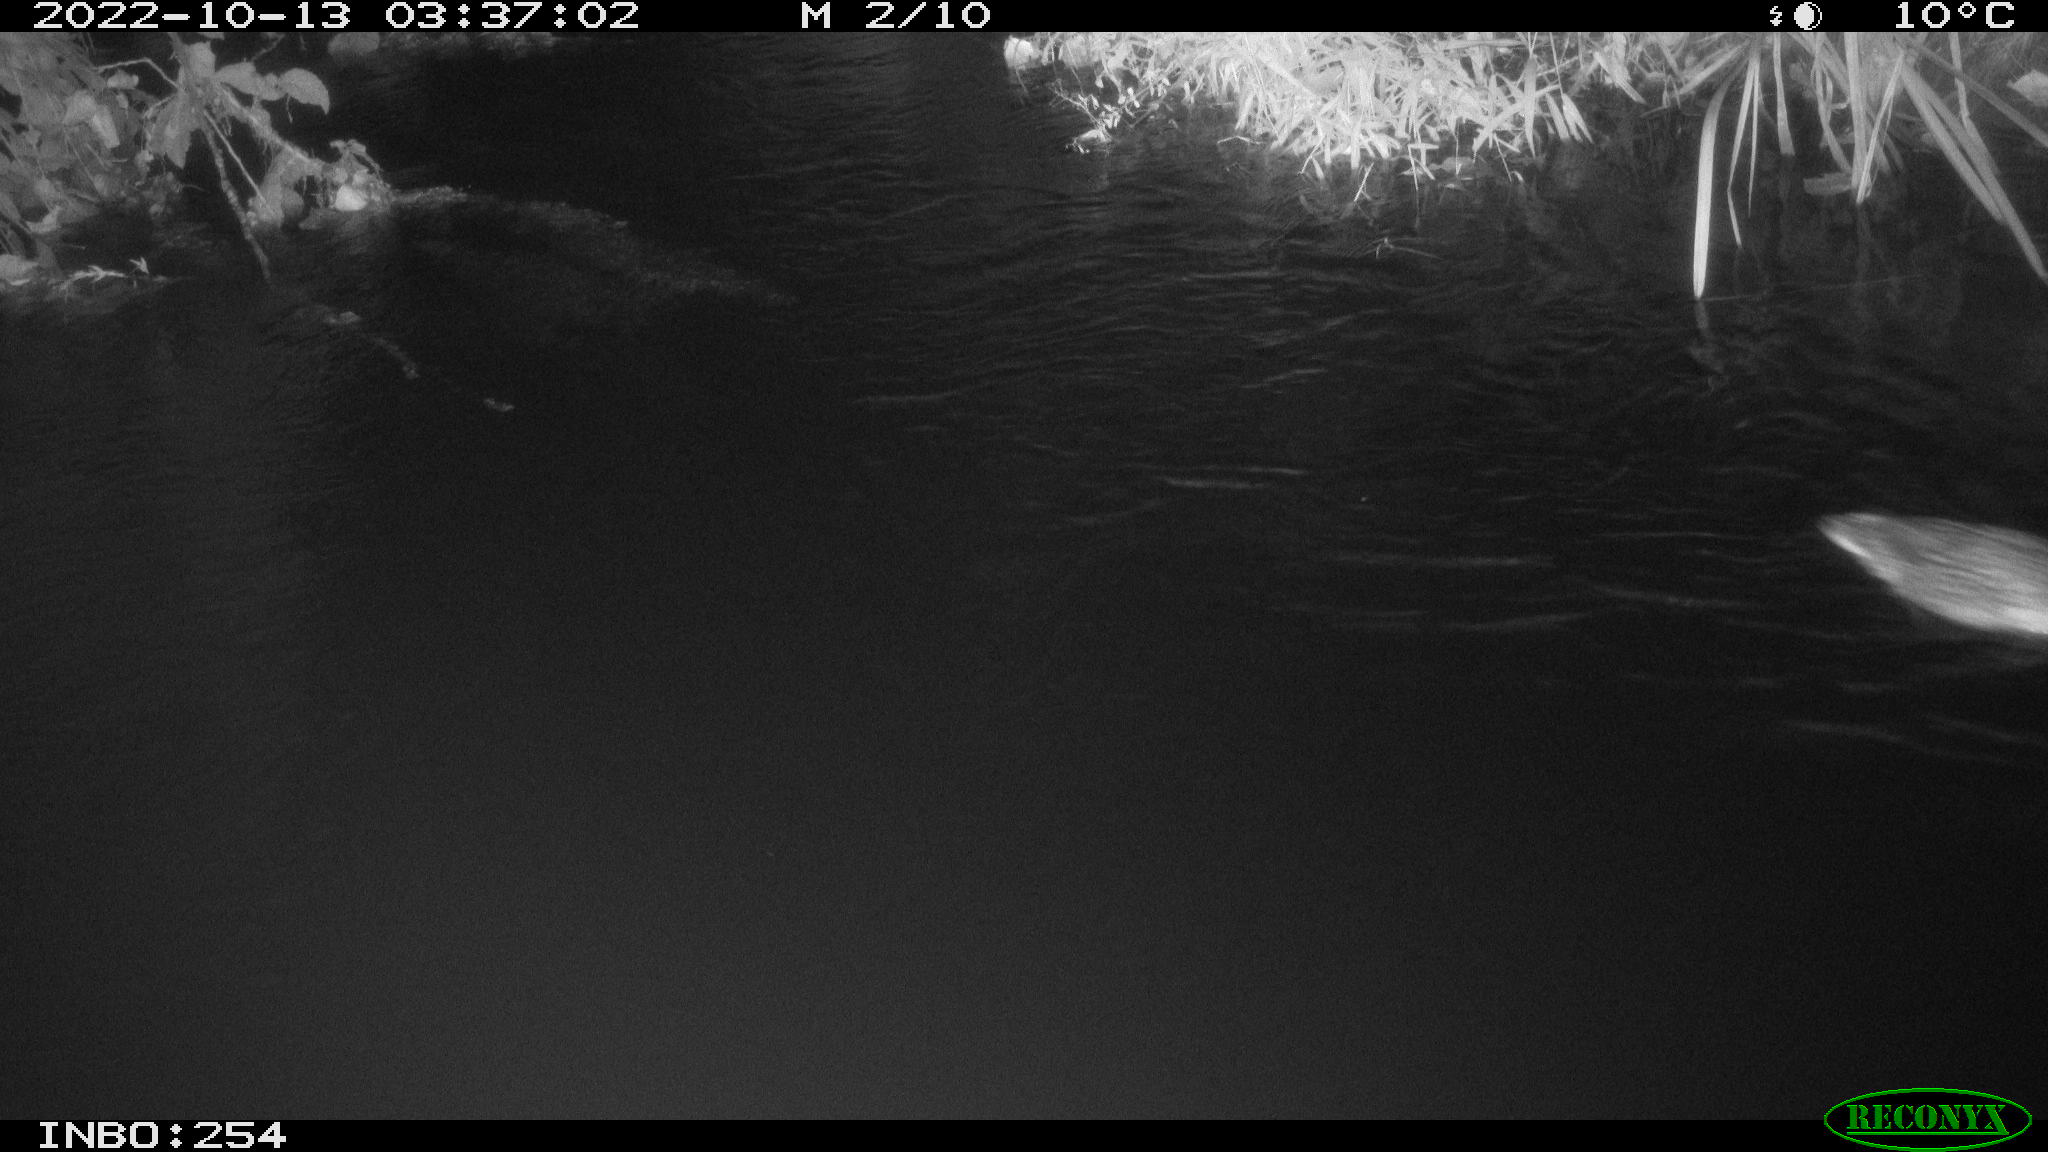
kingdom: Animalia
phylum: Chordata
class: Aves
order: Anseriformes
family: Anatidae
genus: Anas
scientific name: Anas
